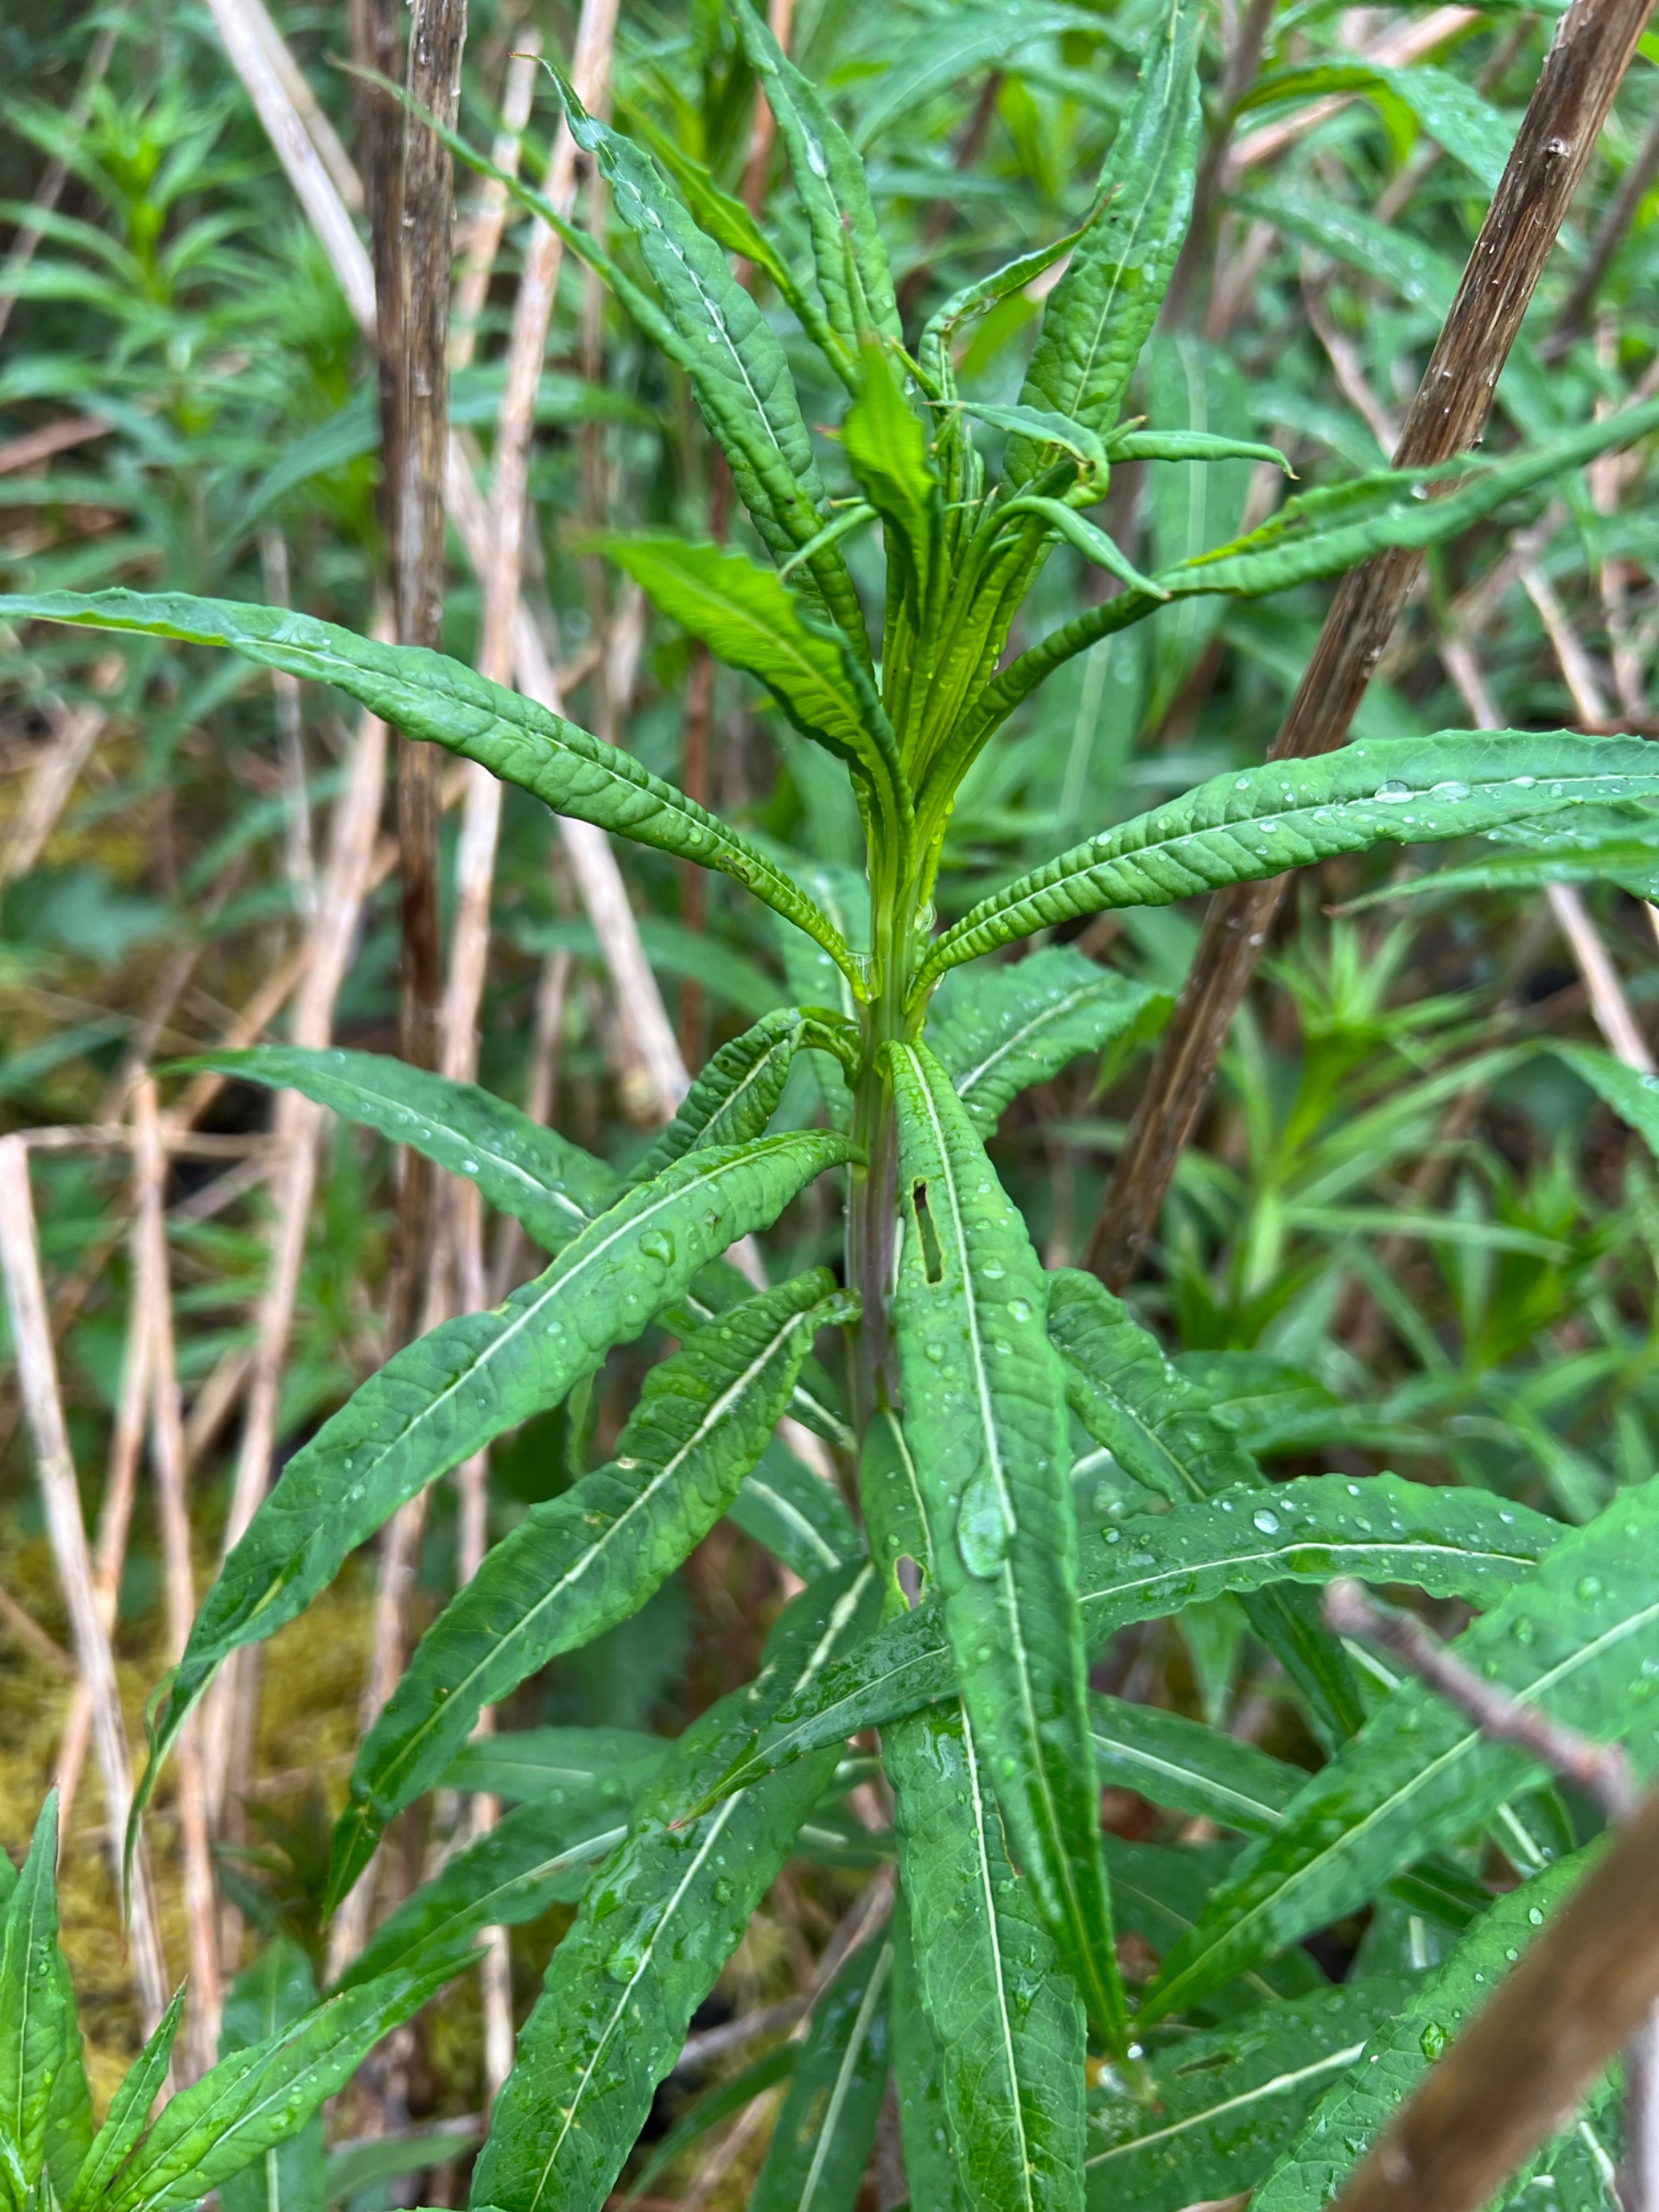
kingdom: Plantae
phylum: Tracheophyta
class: Magnoliopsida
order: Myrtales
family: Onagraceae
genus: Chamaenerion
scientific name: Chamaenerion angustifolium
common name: Gederams
